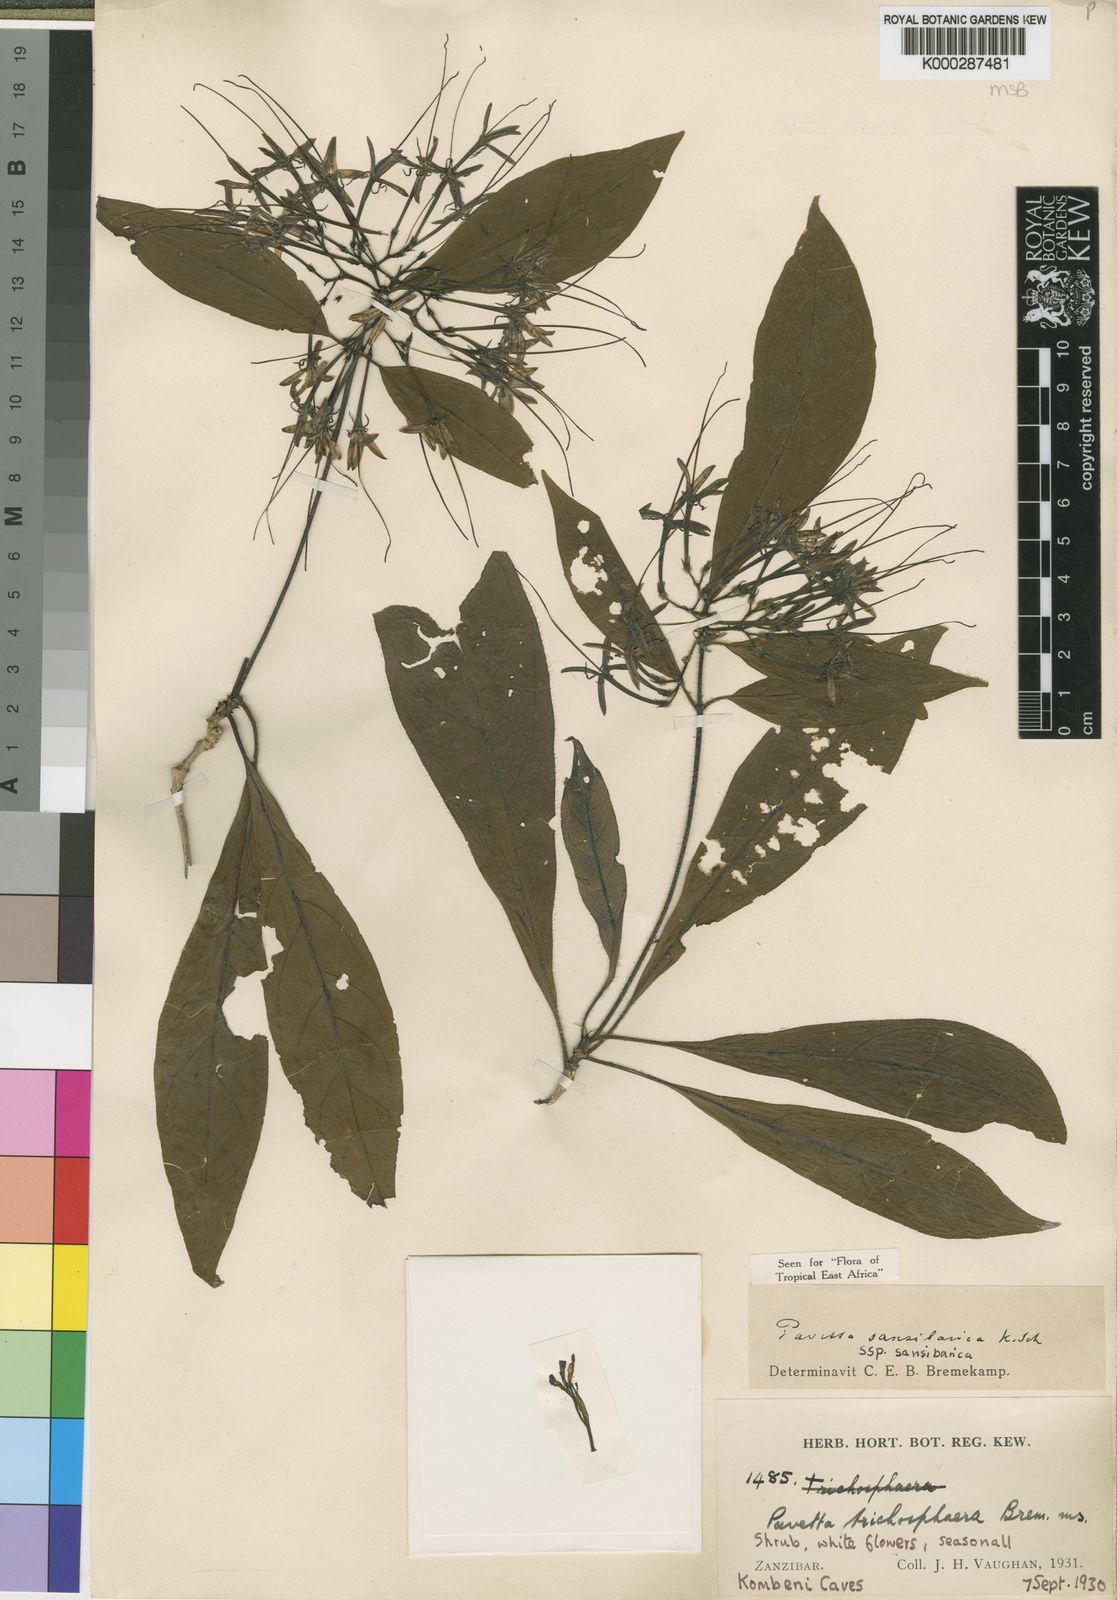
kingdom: Plantae
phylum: Tracheophyta
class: Magnoliopsida
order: Gentianales
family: Rubiaceae
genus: Pavetta
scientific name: Pavetta sansibarica
